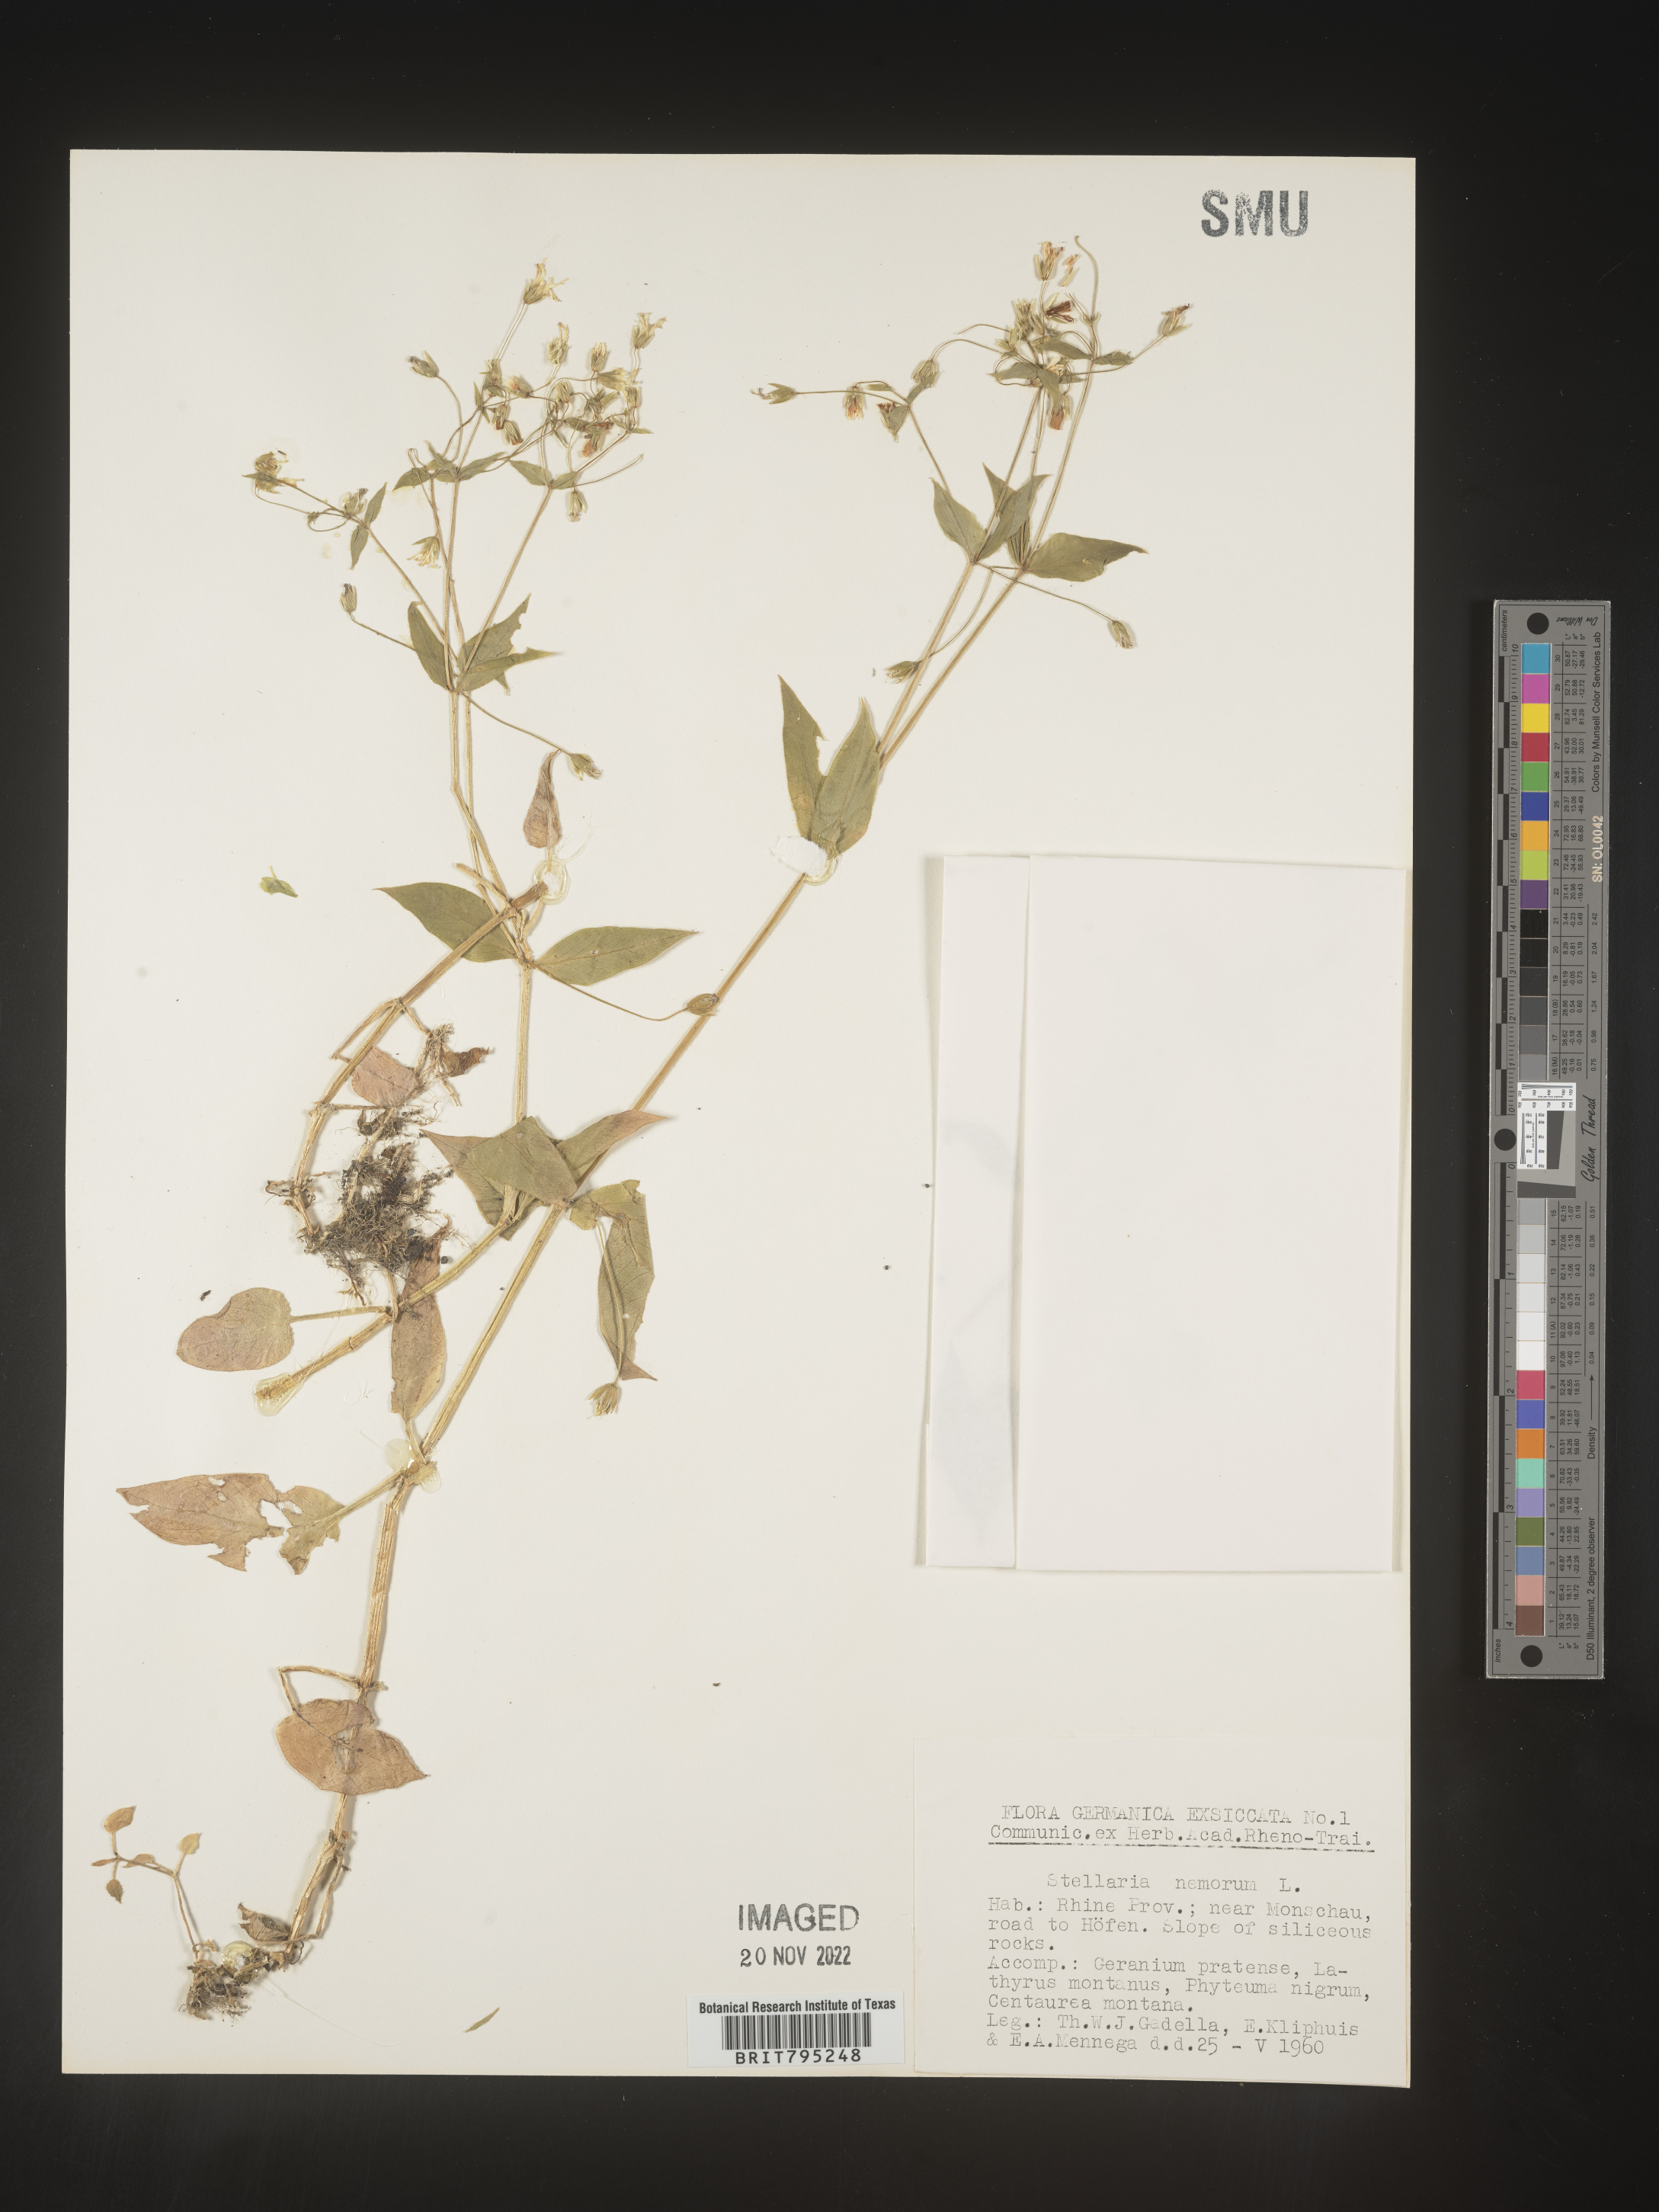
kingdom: Plantae
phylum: Tracheophyta
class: Magnoliopsida
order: Caryophyllales
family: Caryophyllaceae
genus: Stellaria
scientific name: Stellaria
